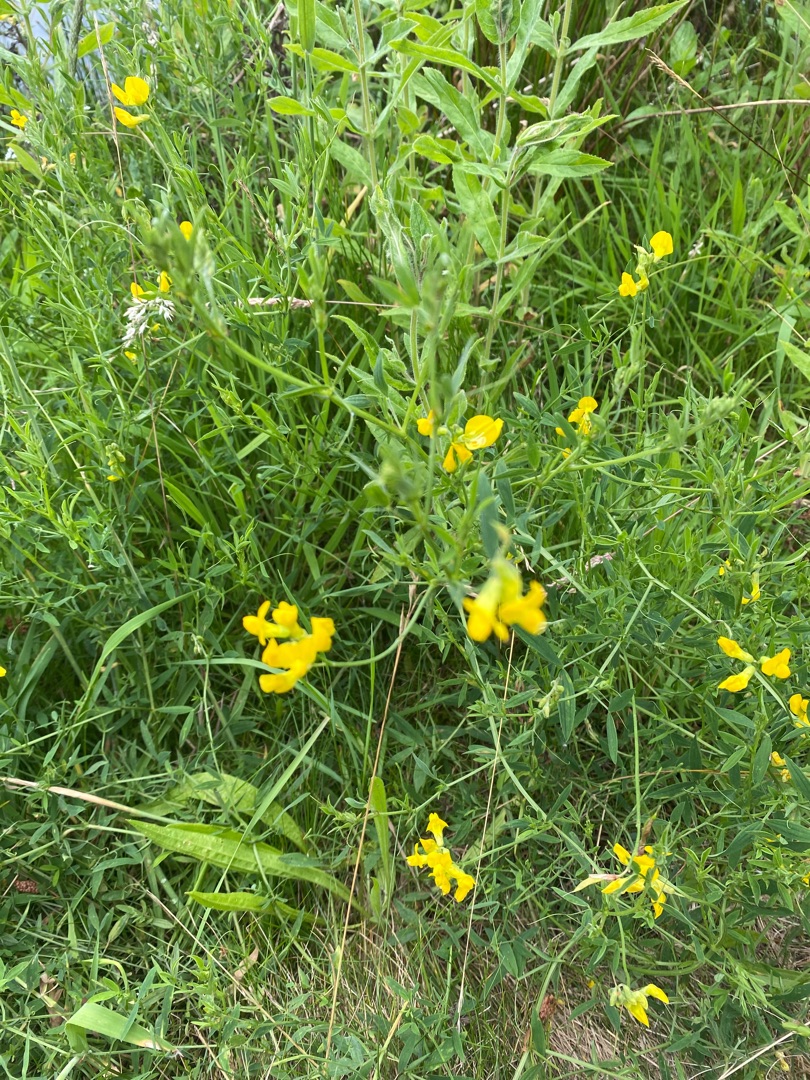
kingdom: Plantae
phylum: Tracheophyta
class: Magnoliopsida
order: Fabales
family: Fabaceae
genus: Lathyrus
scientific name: Lathyrus pratensis
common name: Gul fladbælg
